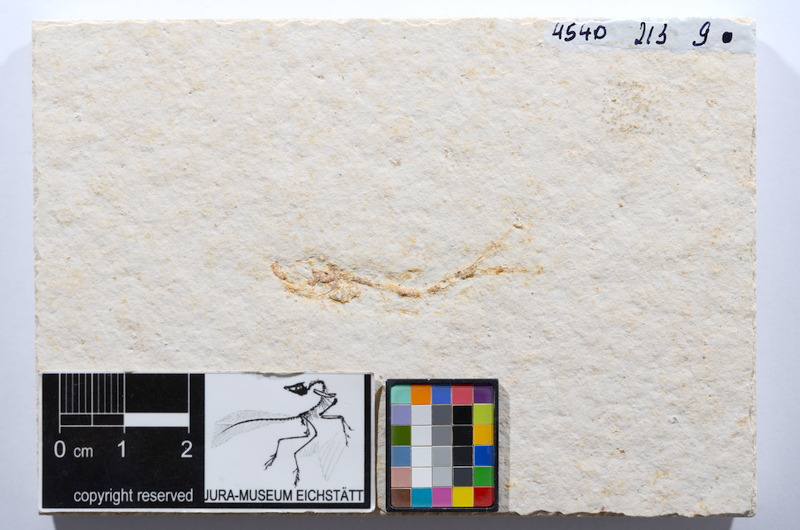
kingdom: Animalia
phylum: Chordata
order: Salmoniformes
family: Orthogonikleithridae
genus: Leptolepides
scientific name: Leptolepides sprattiformis
